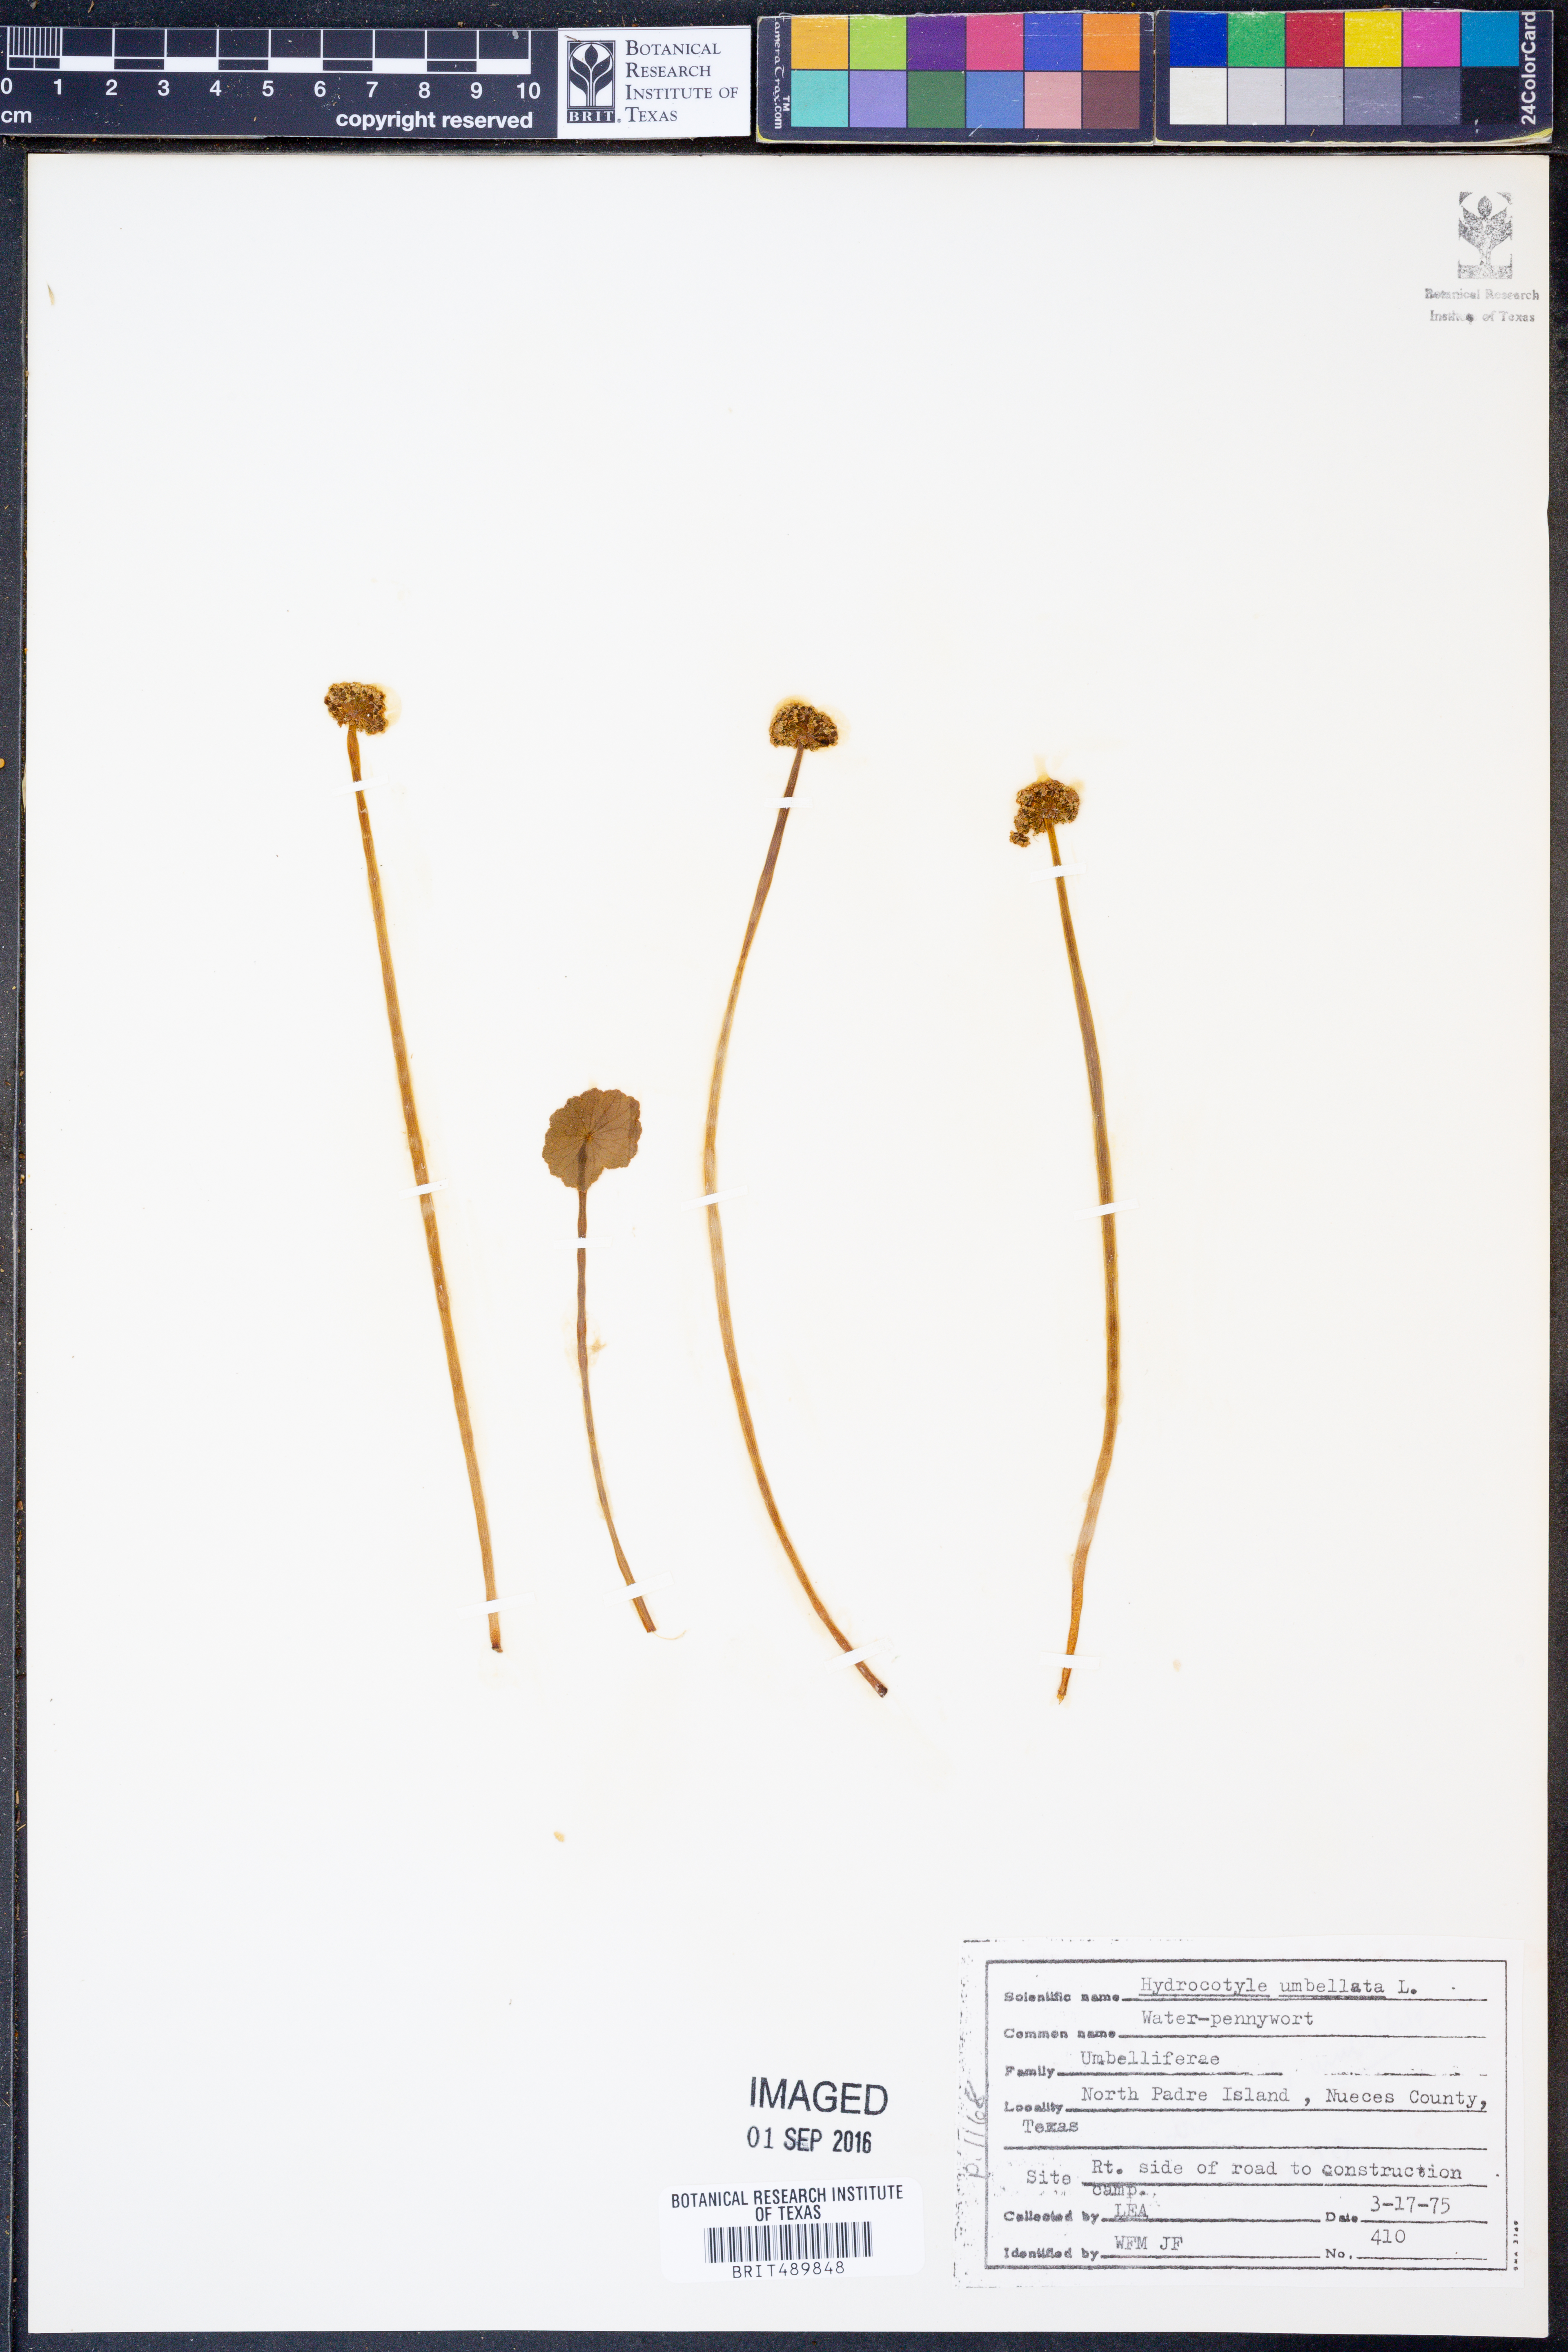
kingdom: Plantae
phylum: Tracheophyta
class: Magnoliopsida
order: Apiales
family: Araliaceae
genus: Hydrocotyle
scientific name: Hydrocotyle umbellata
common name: Water pennywort
